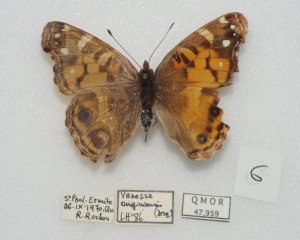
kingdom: Animalia
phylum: Arthropoda
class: Insecta
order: Lepidoptera
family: Nymphalidae
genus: Vanessa
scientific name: Vanessa virginiensis
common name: American Lady
